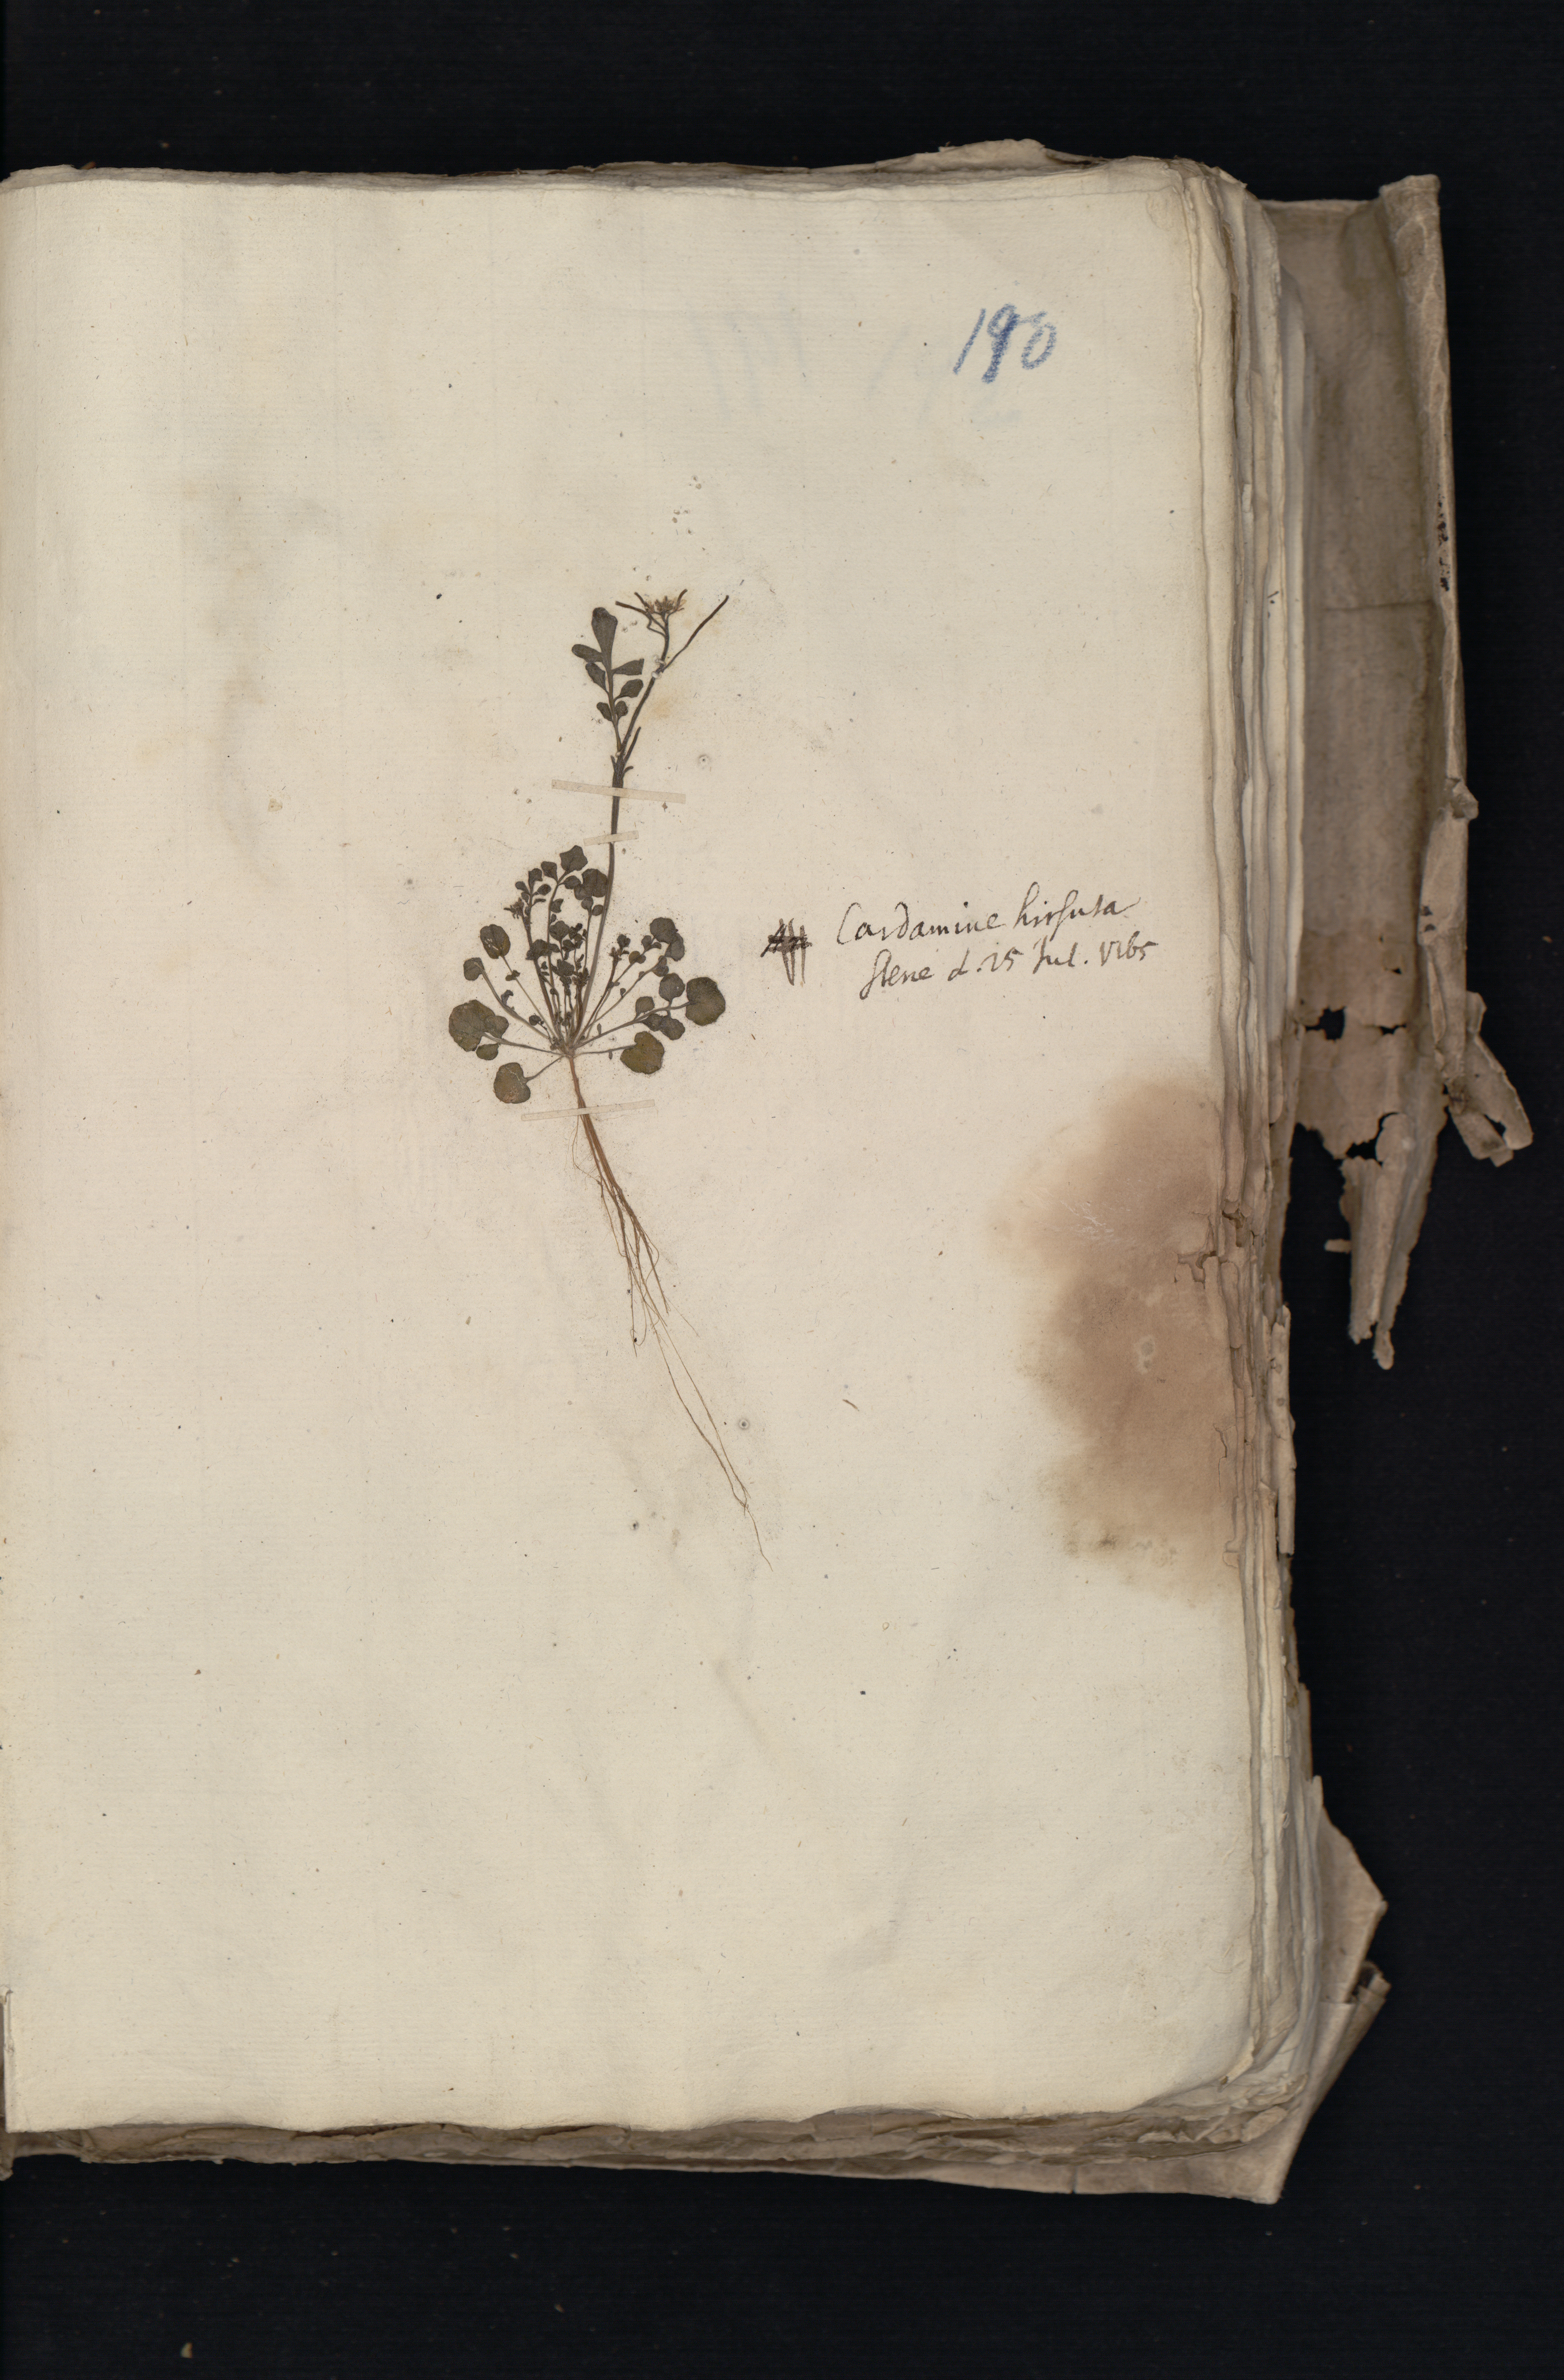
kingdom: Plantae
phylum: Tracheophyta
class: Magnoliopsida
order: Brassicales
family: Brassicaceae
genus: Cardamine
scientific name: Cardamine hirsuta
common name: Hairy bittercress
